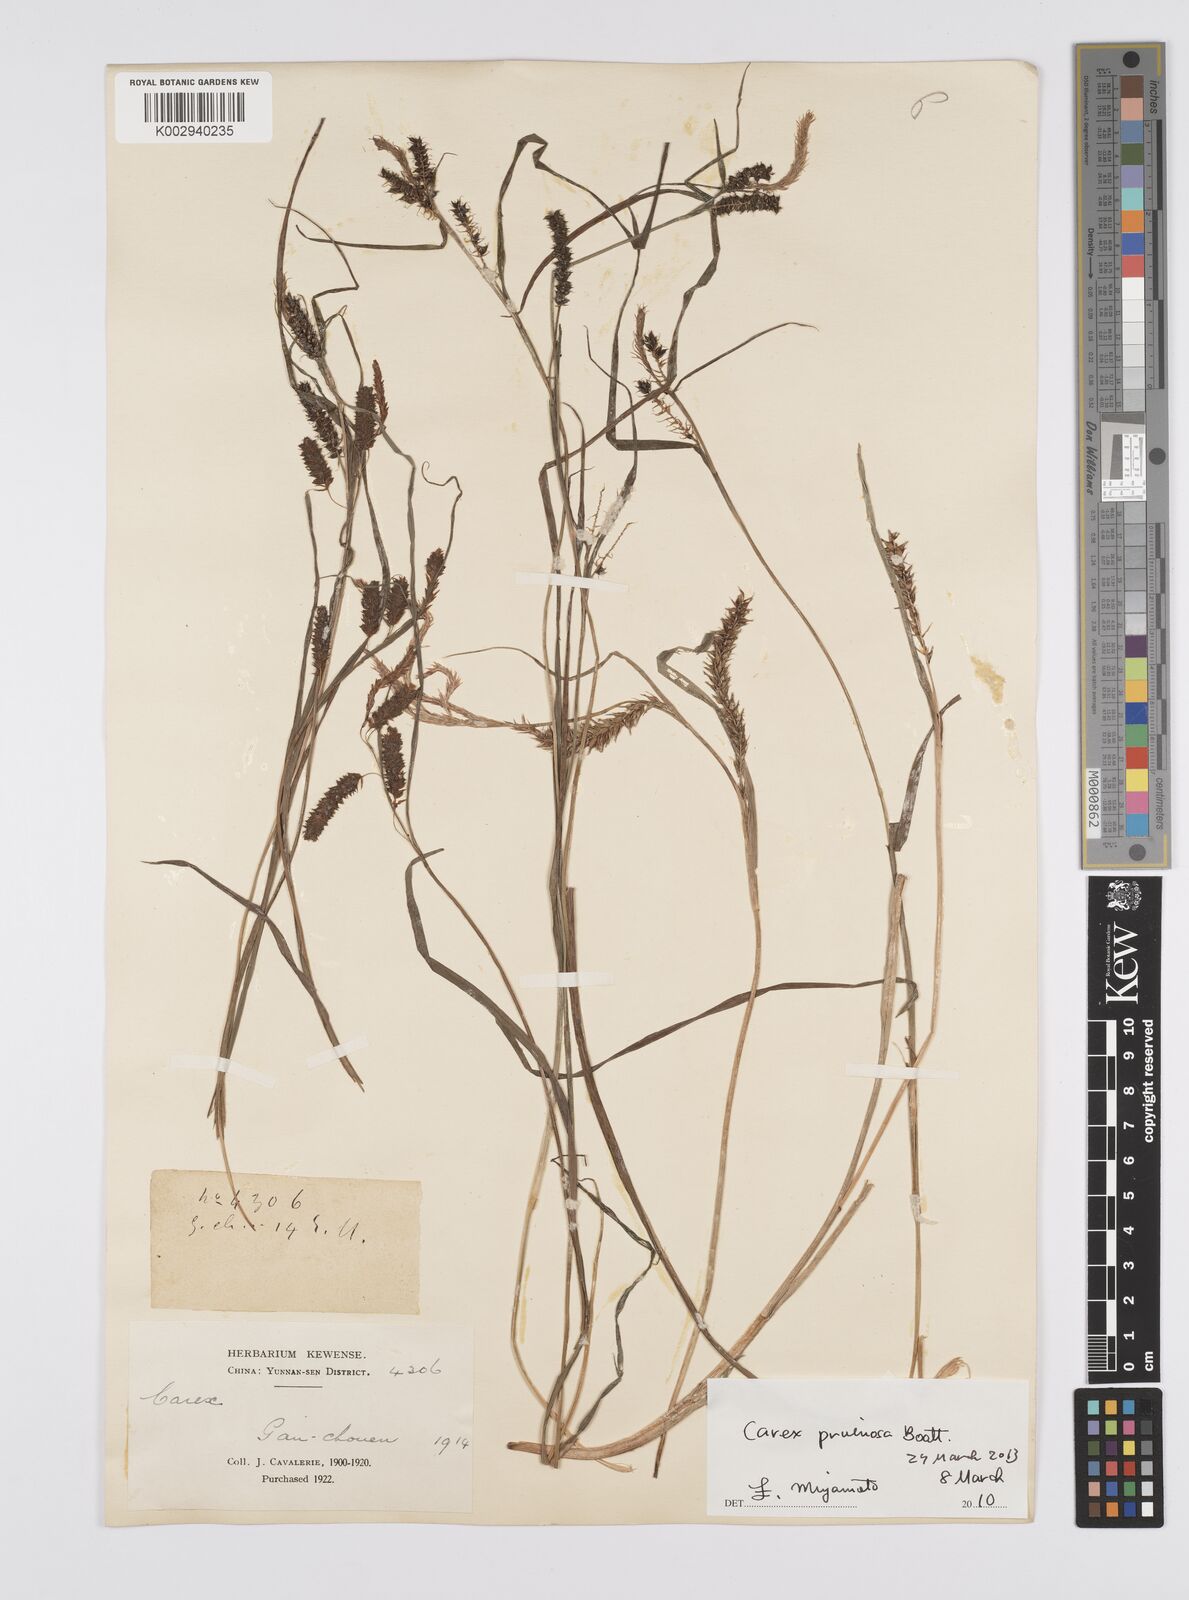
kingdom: Plantae
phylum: Tracheophyta
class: Liliopsida
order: Poales
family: Cyperaceae
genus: Carex
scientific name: Carex pruinosa
